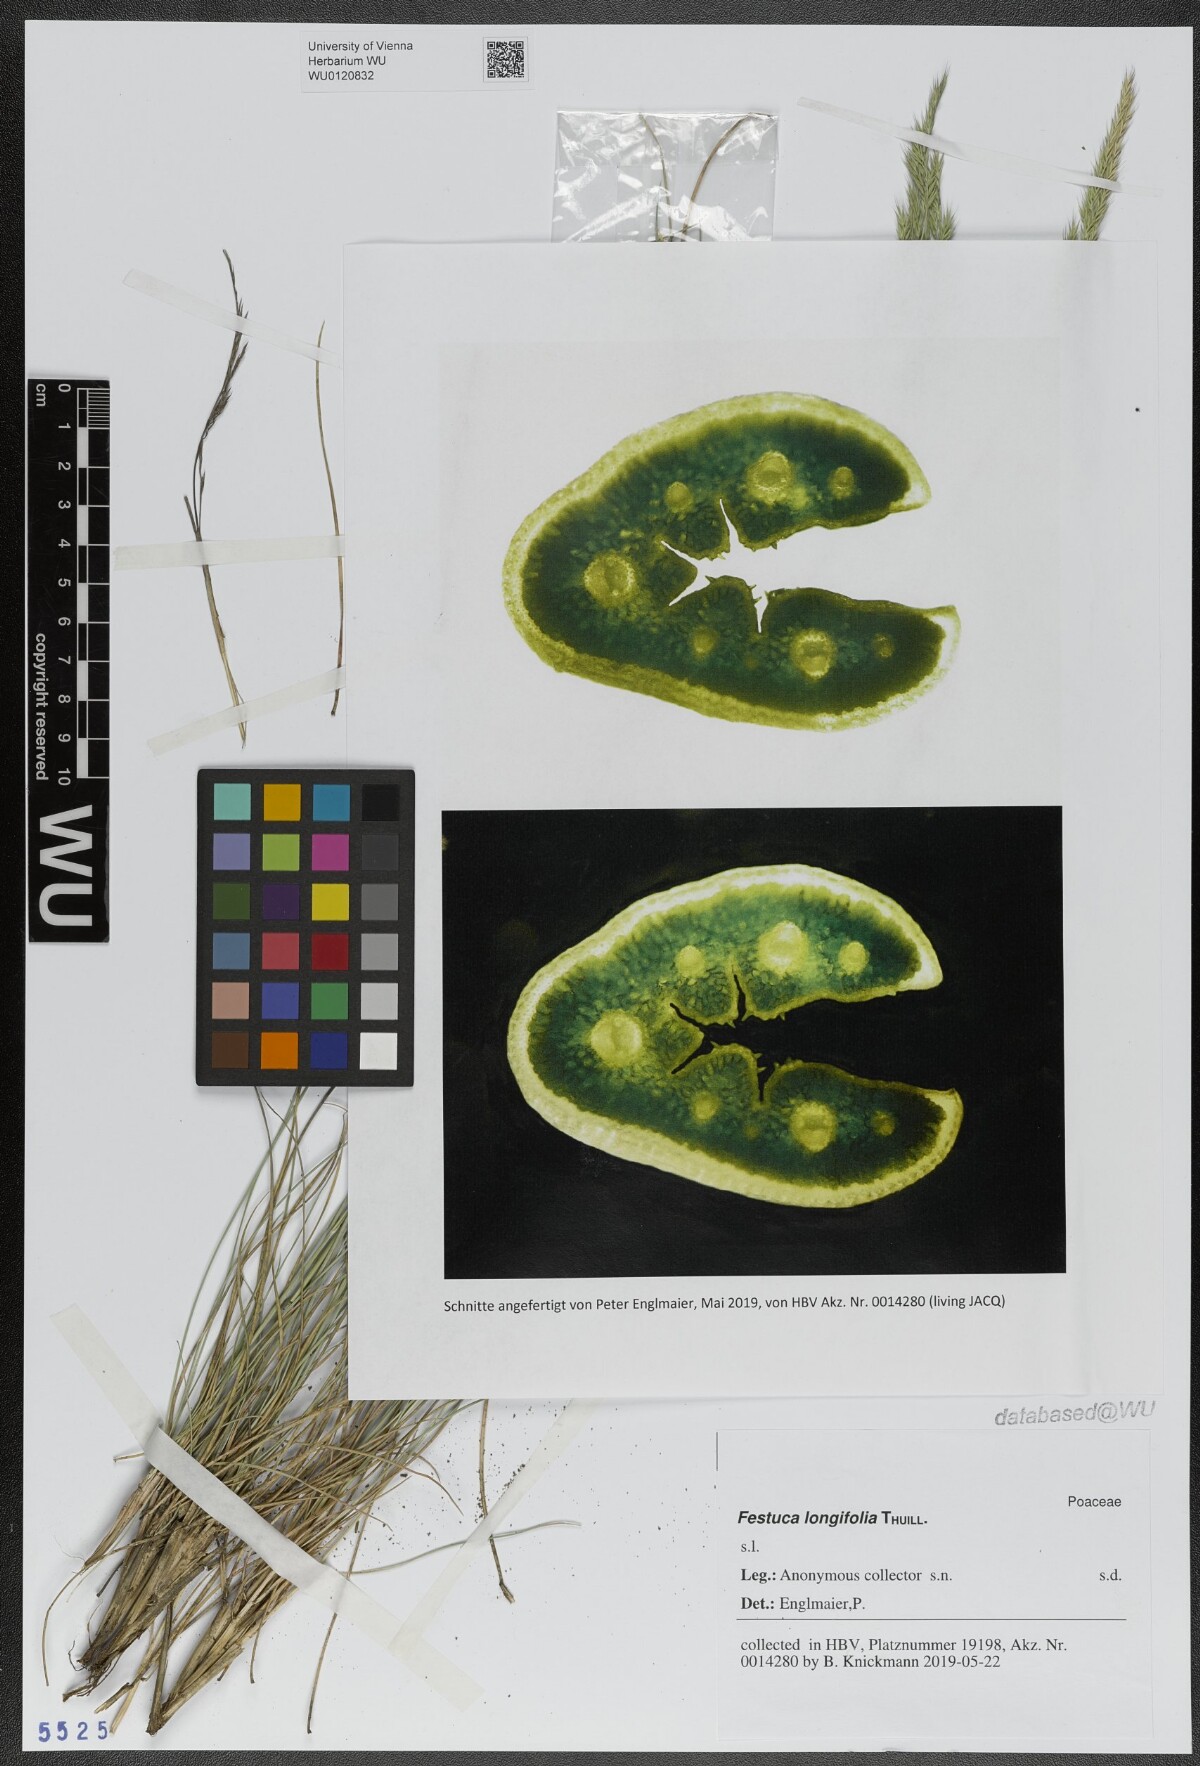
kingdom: Plantae
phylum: Tracheophyta
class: Liliopsida
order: Poales
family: Poaceae
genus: Festuca
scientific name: Festuca longifolia
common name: Blue fescue
